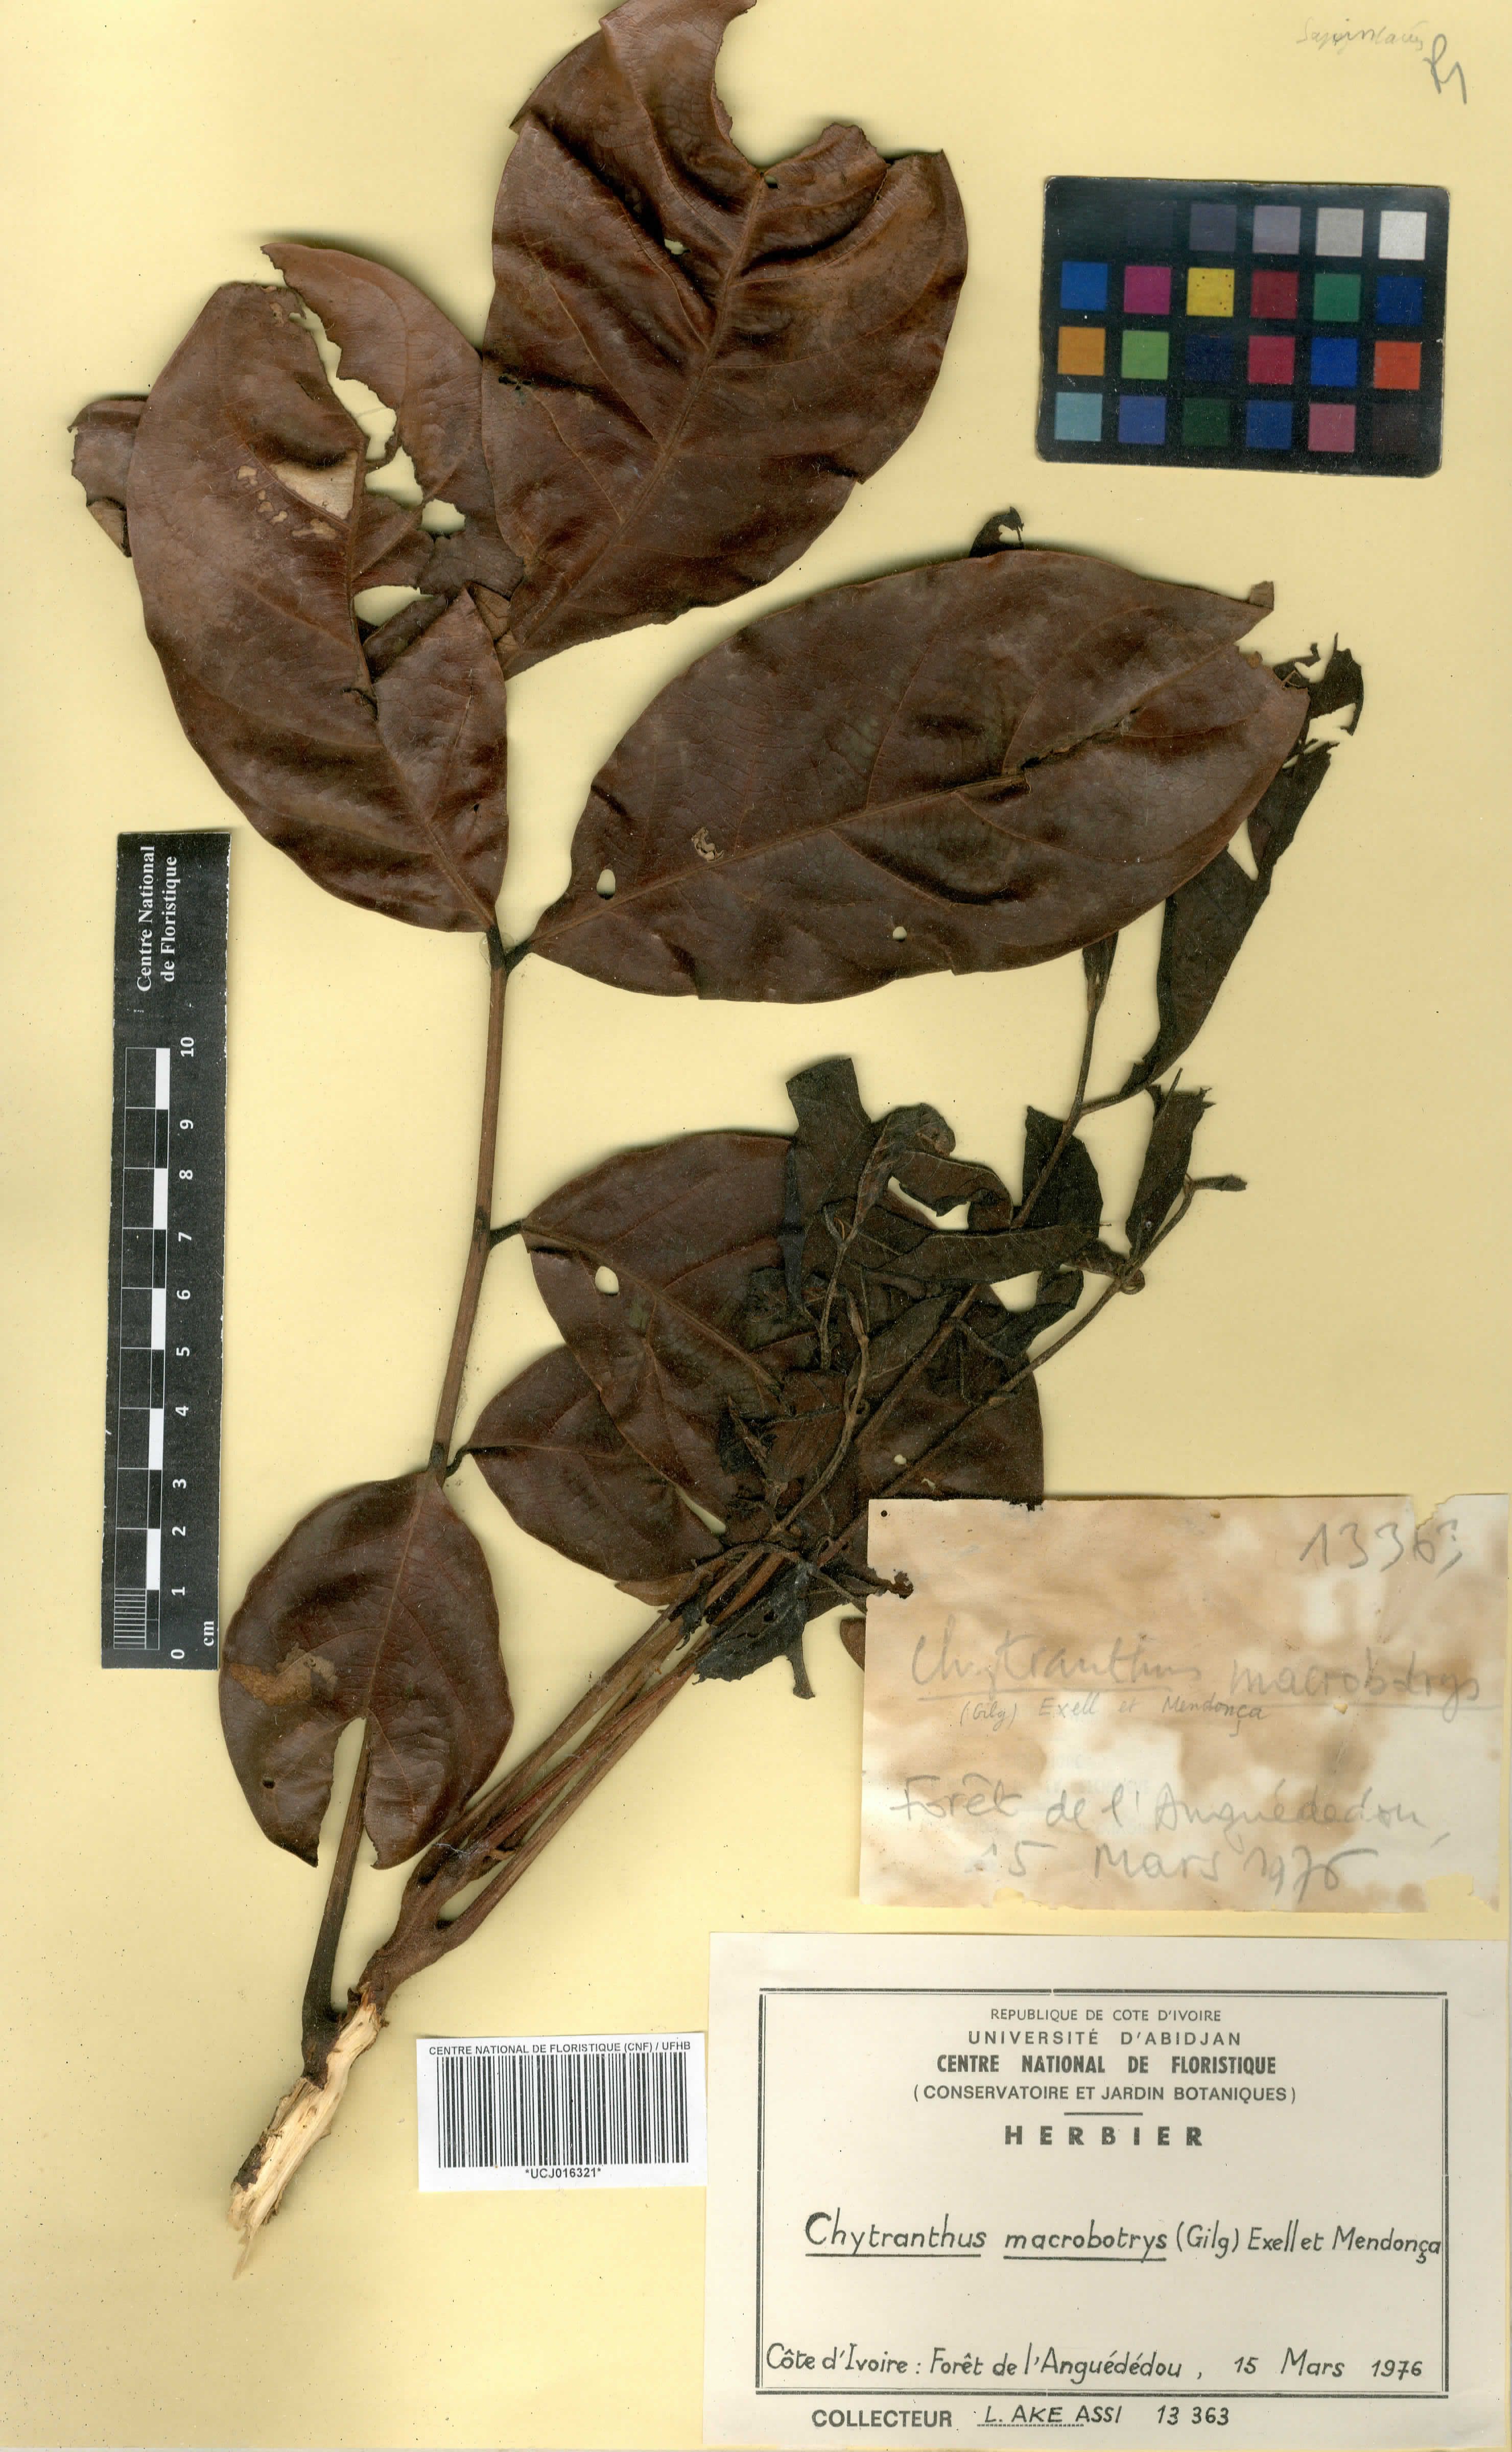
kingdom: Plantae
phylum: Tracheophyta
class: Magnoliopsida
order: Sapindales
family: Sapindaceae
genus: Chytranthus
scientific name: Chytranthus macrobotrys
